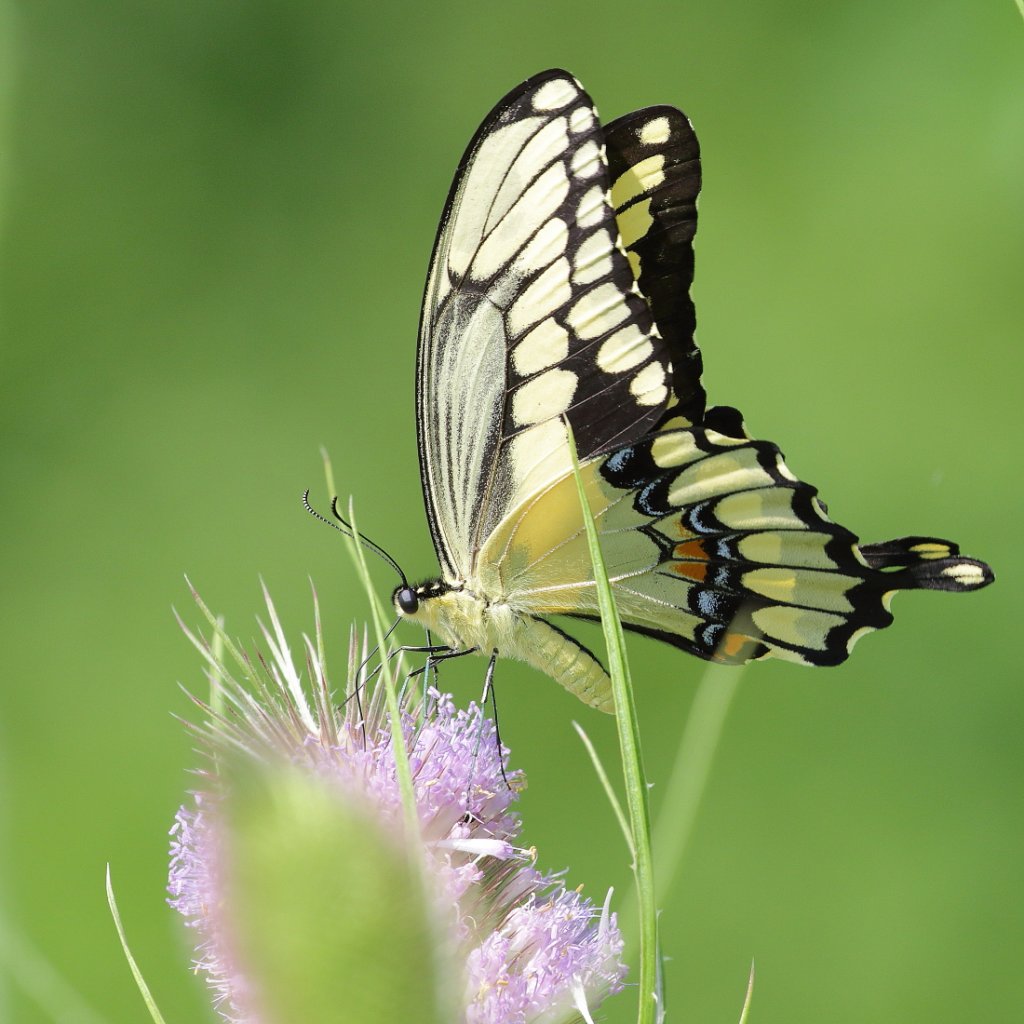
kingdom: Animalia
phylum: Arthropoda
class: Insecta
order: Lepidoptera
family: Papilionidae
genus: Papilio
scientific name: Papilio cresphontes
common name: Eastern Giant Swallowtail
